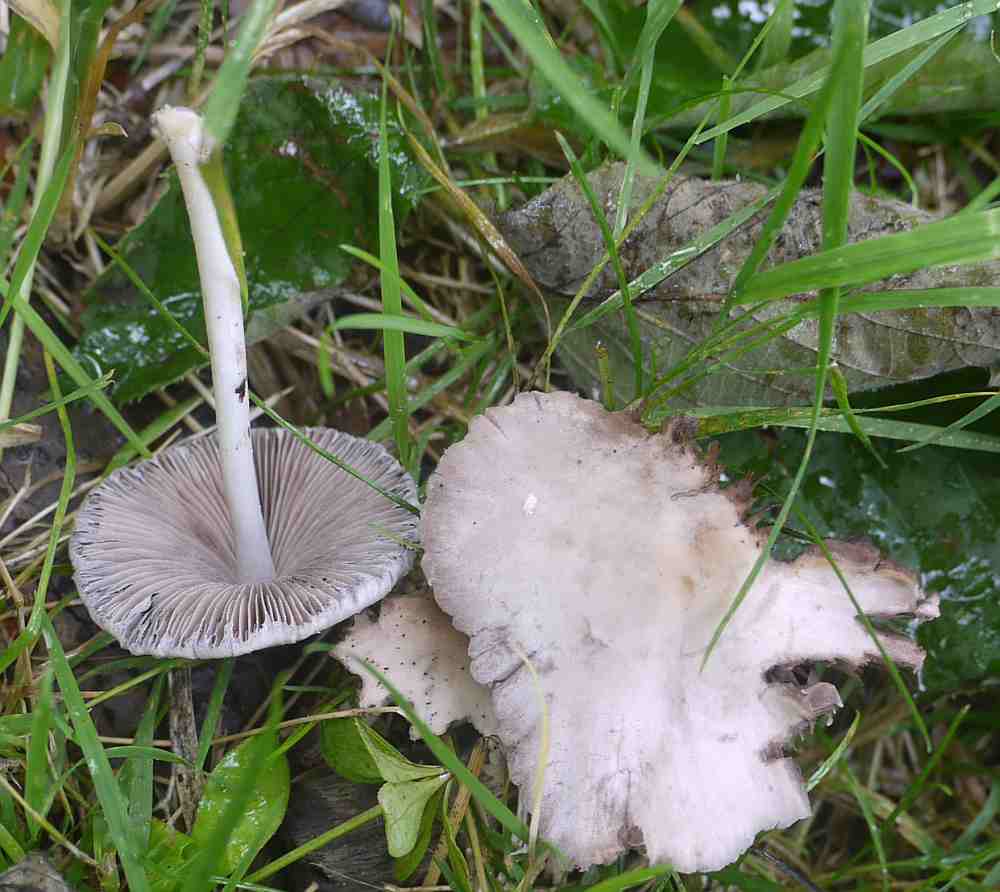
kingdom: Fungi
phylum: Basidiomycota
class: Agaricomycetes
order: Agaricales
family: Psathyrellaceae
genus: Candolleomyces
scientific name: Candolleomyces candolleanus
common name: Candolles mørkhat
